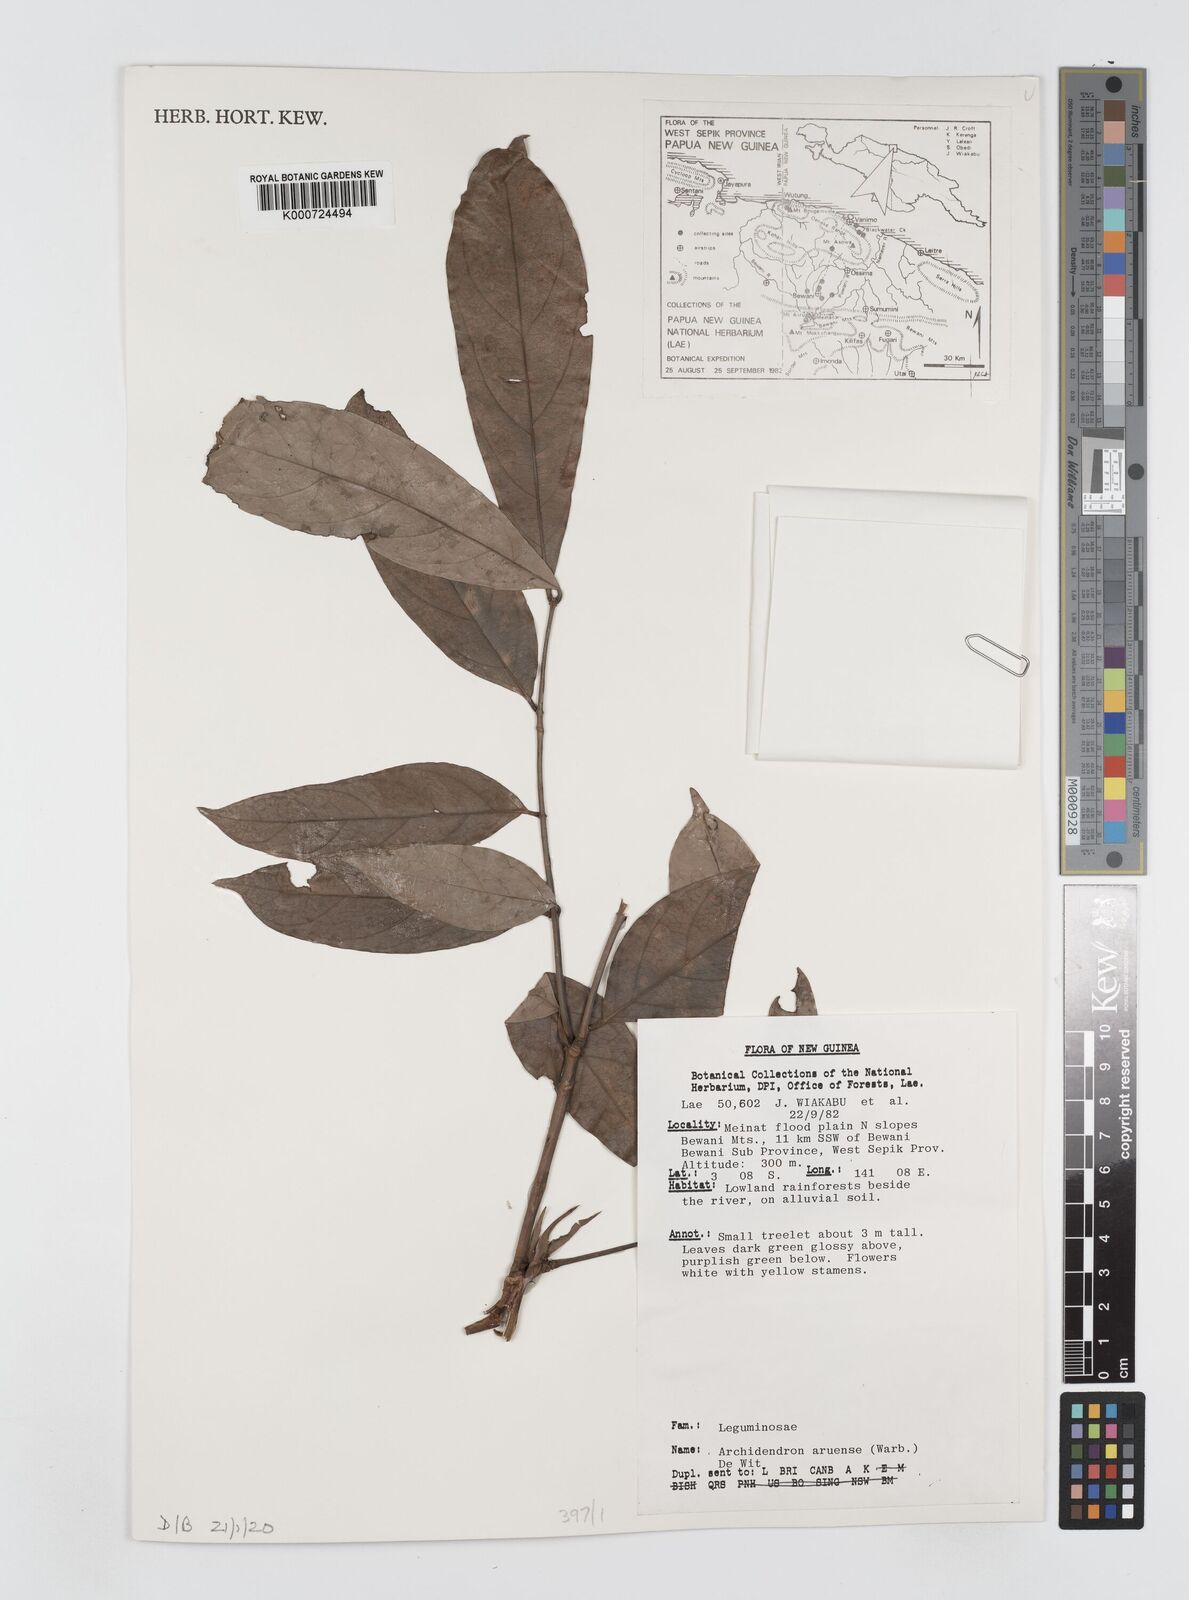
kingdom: Plantae
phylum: Tracheophyta
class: Magnoliopsida
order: Fabales
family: Fabaceae
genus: Archidendron
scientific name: Archidendron aruense
